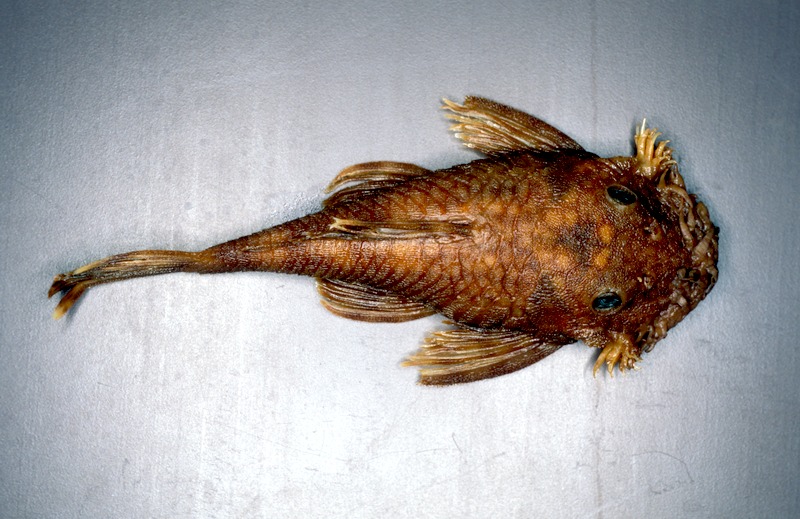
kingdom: Animalia
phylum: Chordata
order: Siluriformes
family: Loricariidae
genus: Ancistrus
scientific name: Ancistrus piriformis
